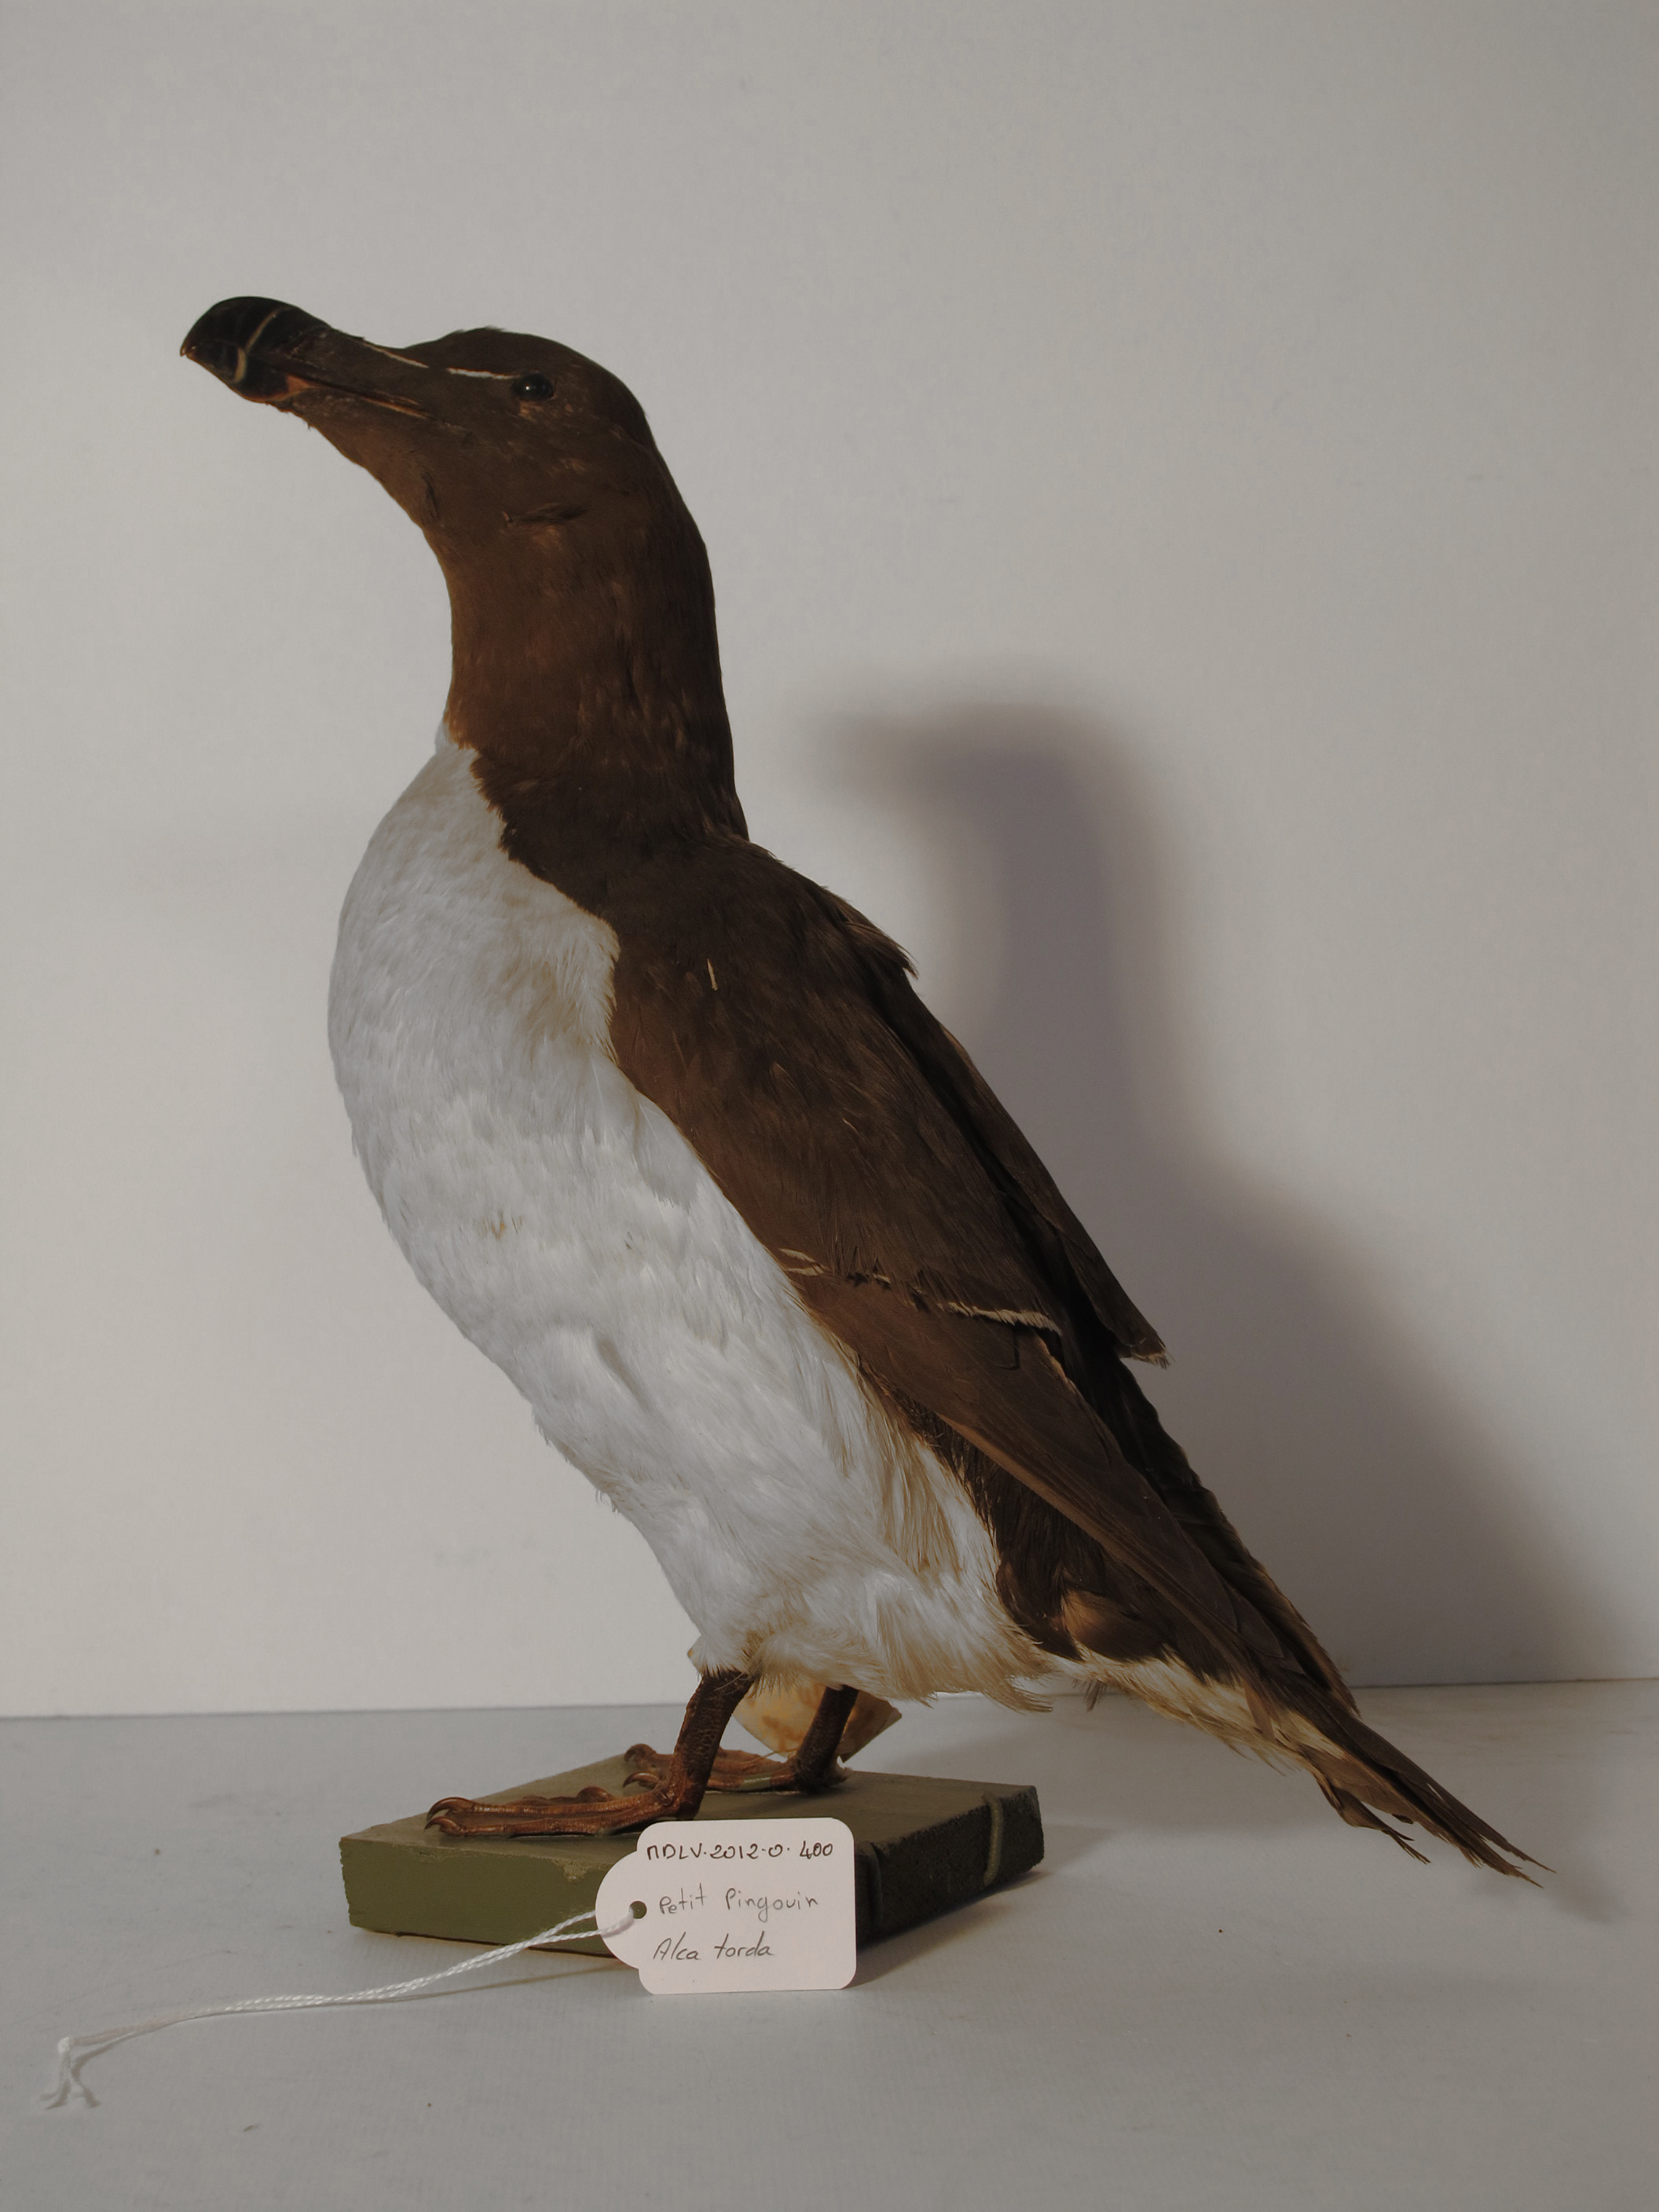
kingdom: Animalia
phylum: Chordata
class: Aves
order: Charadriiformes
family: Alcidae
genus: Alca
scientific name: Alca torda
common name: Razorbill
